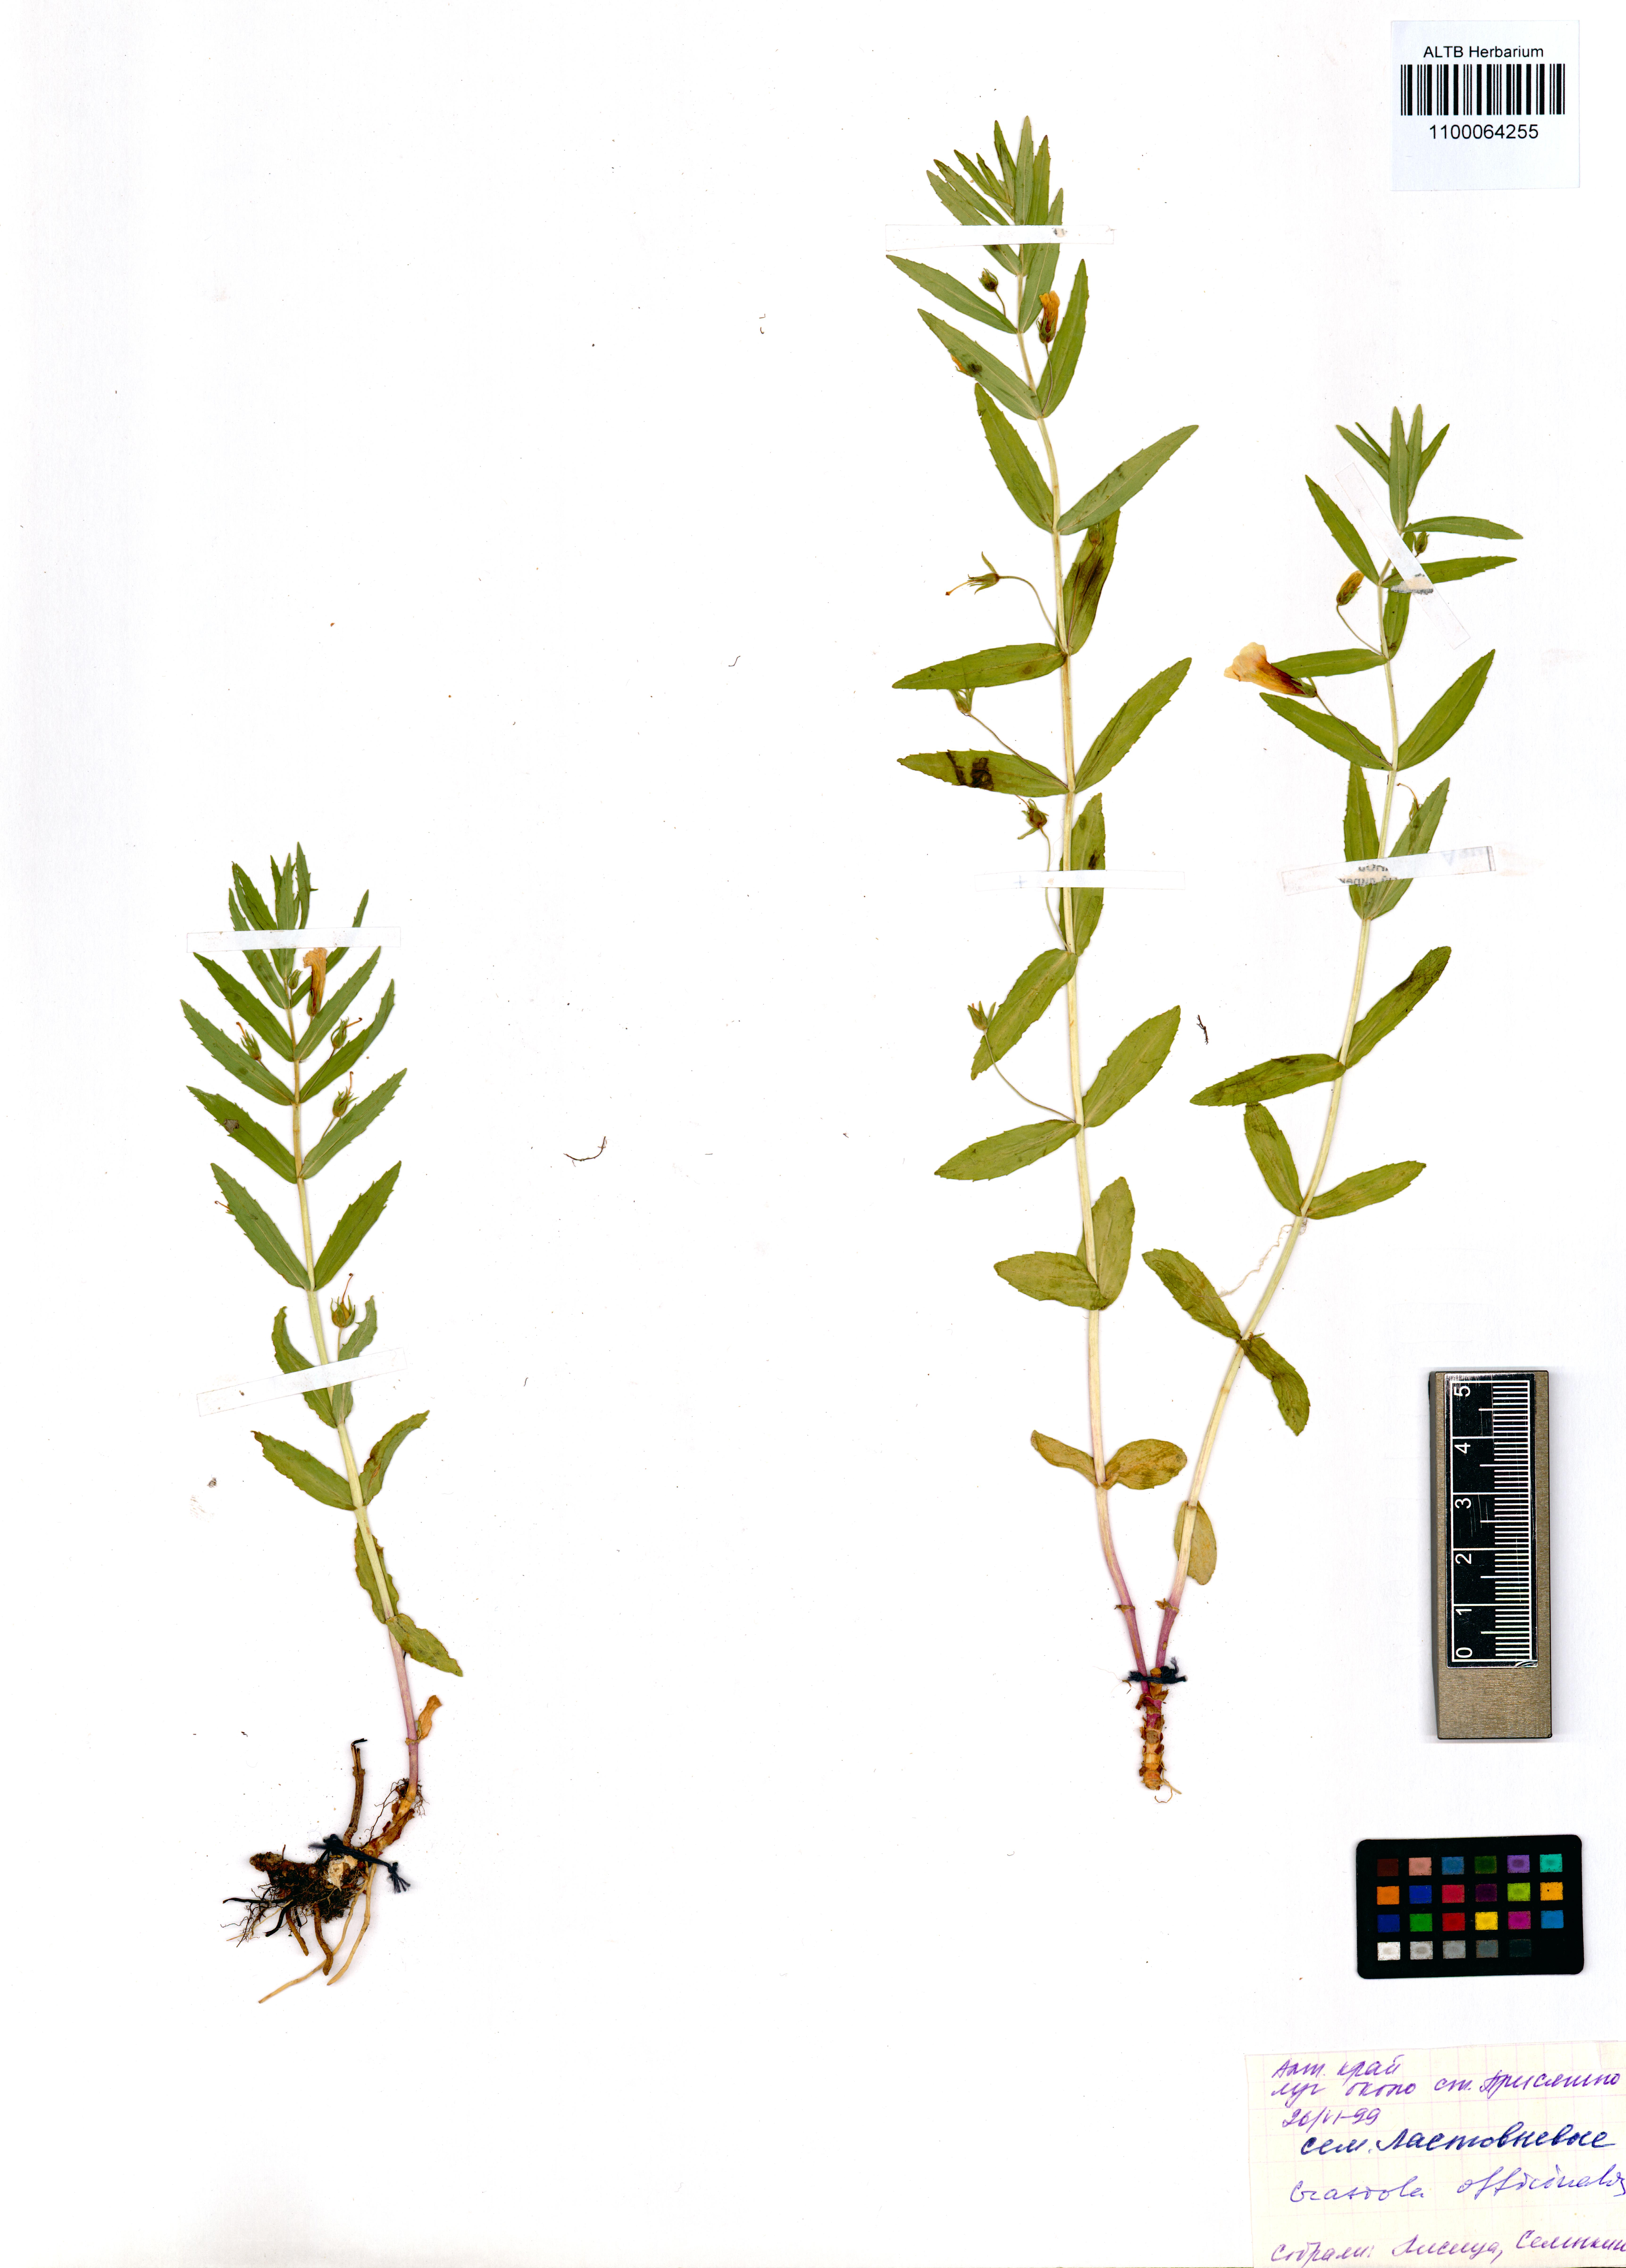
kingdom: Plantae
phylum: Tracheophyta
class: Magnoliopsida
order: Lamiales
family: Plantaginaceae
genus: Gratiola
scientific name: Gratiola officinalis
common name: Gratiola
